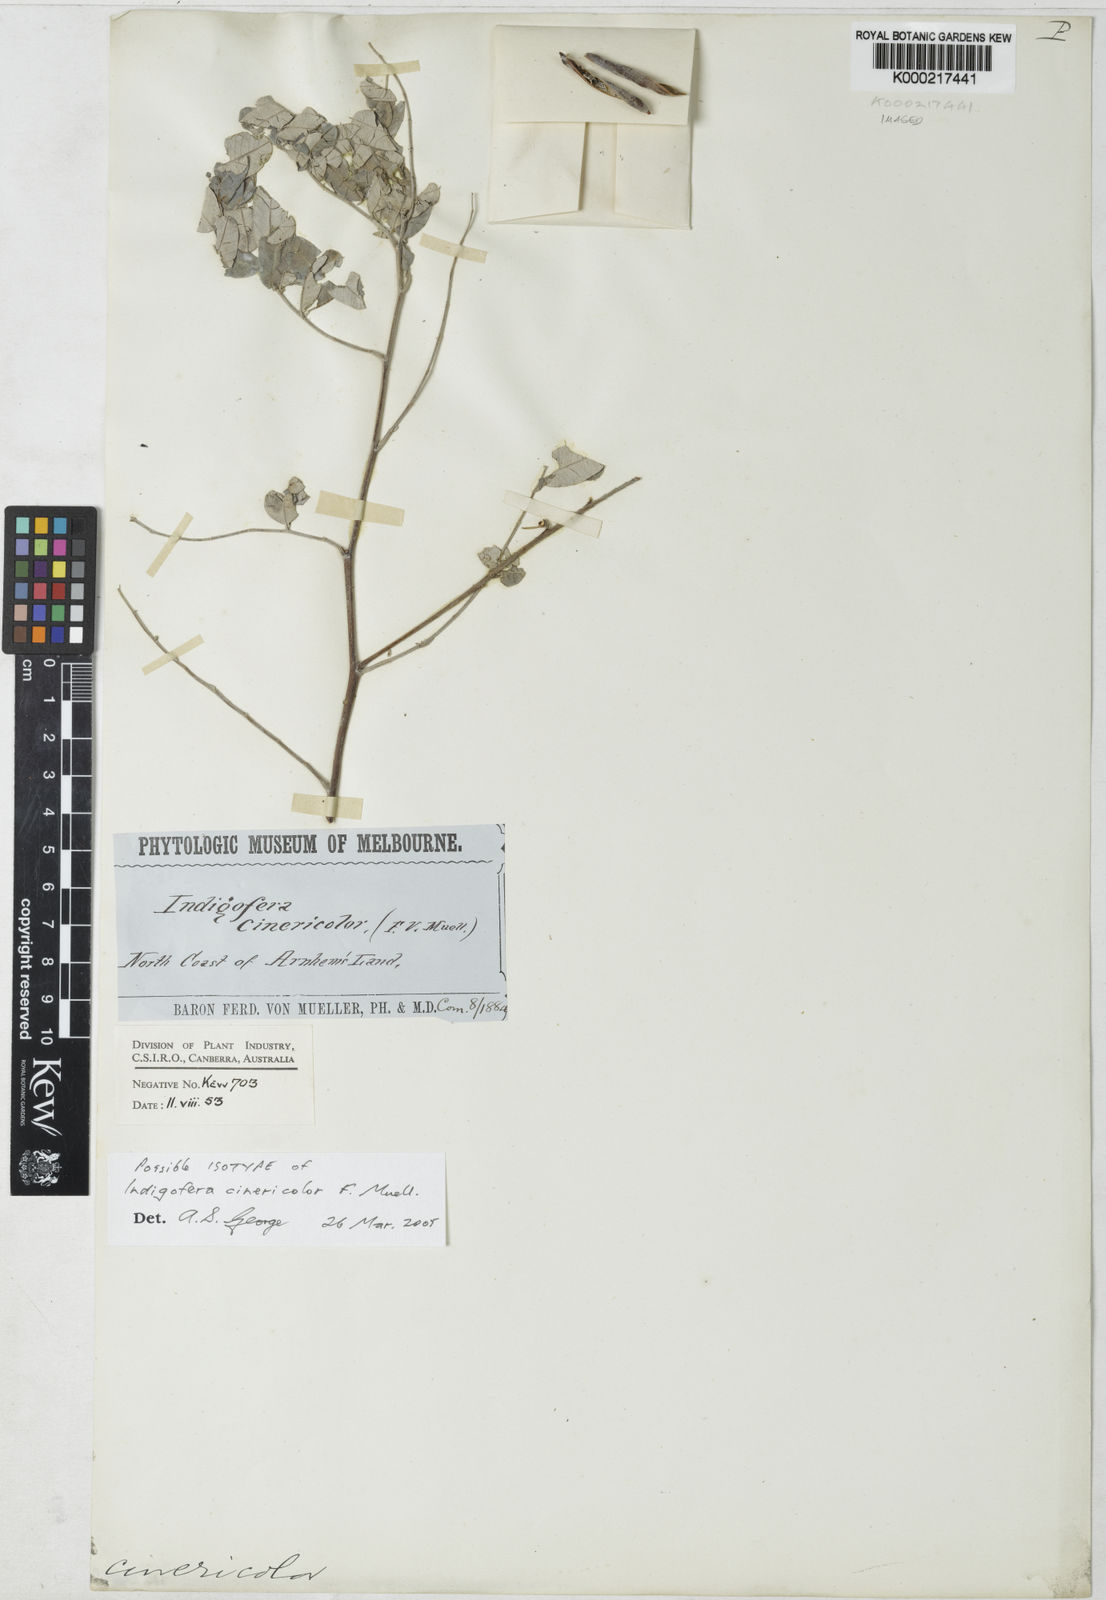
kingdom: Plantae
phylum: Tracheophyta
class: Magnoliopsida
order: Fabales
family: Fabaceae
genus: Indigofera
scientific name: Indigofera cinericolor
